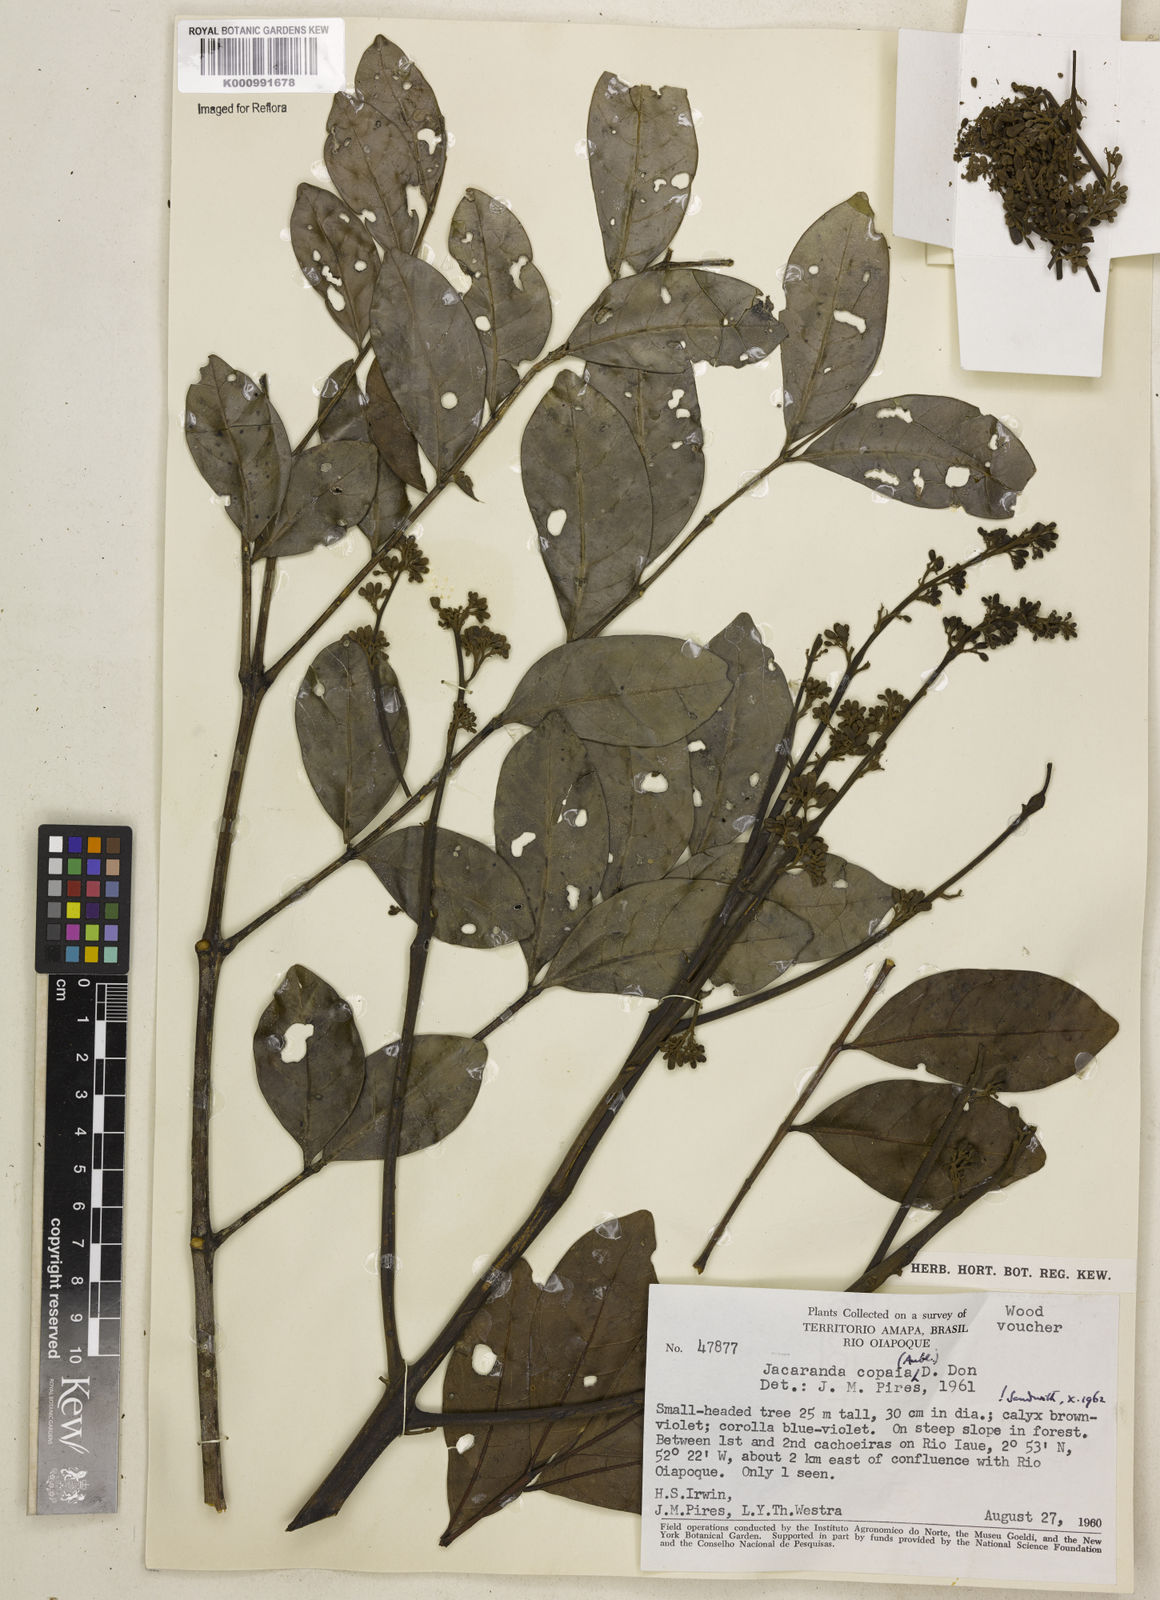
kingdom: Plantae
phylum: Tracheophyta
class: Magnoliopsida
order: Lamiales
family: Bignoniaceae
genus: Jacaranda
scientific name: Jacaranda
